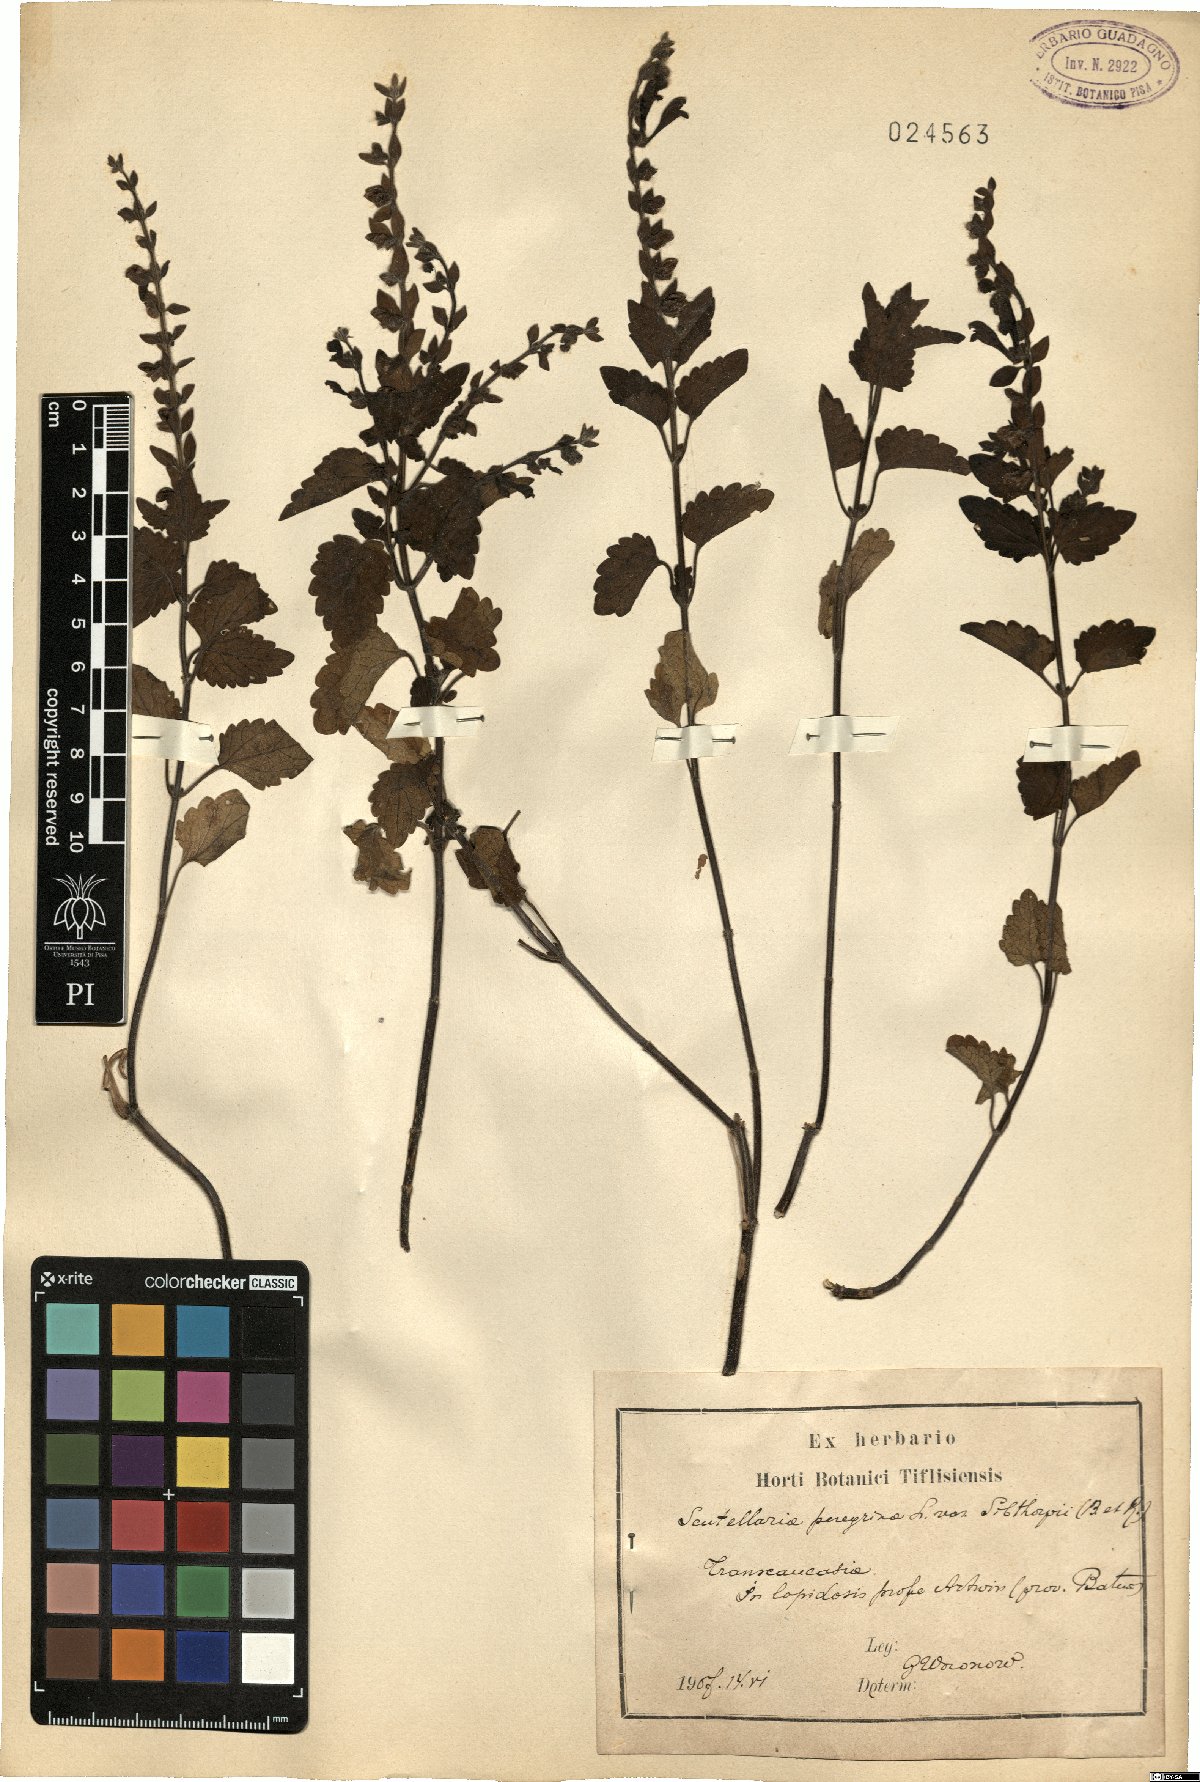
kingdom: Plantae
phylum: Tracheophyta
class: Magnoliopsida
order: Lamiales
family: Lamiaceae
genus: Scutellaria
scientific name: Scutellaria sibthorpii
